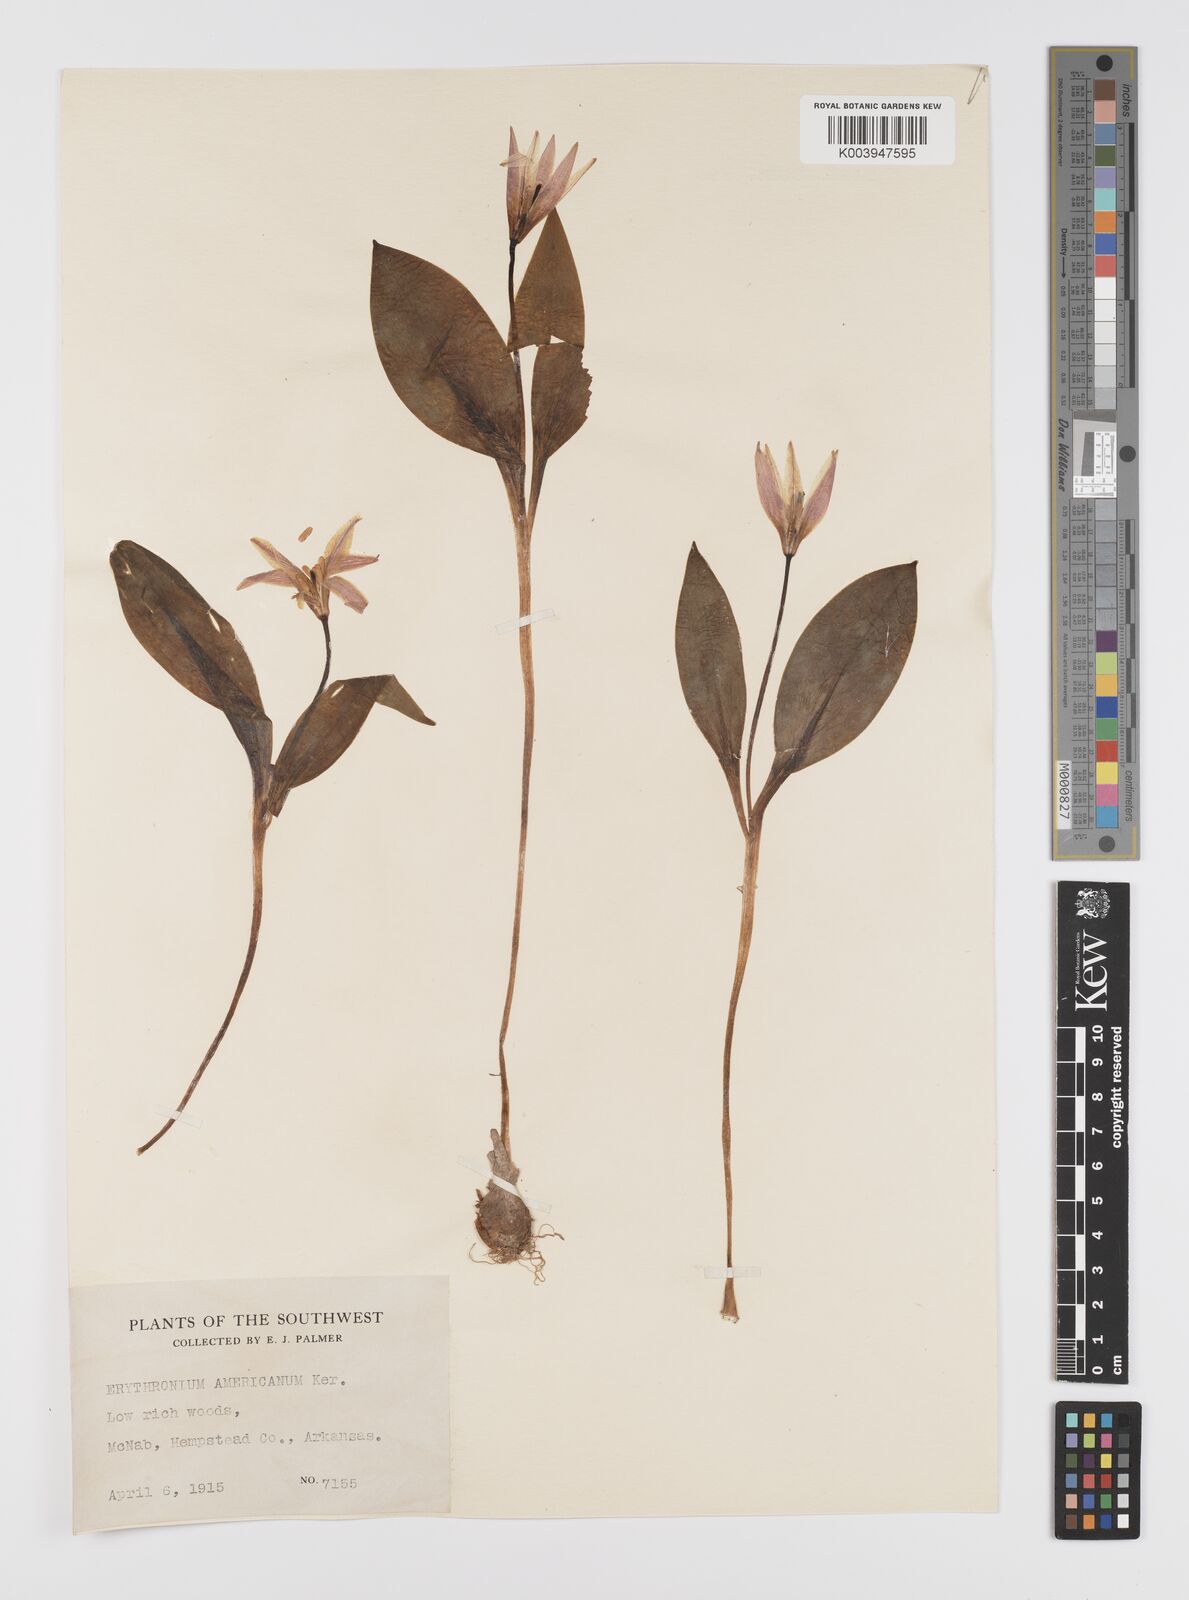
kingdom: Plantae
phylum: Tracheophyta
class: Liliopsida
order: Liliales
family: Liliaceae
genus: Erythronium
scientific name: Erythronium grandiflorum
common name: Avalanche-lily
